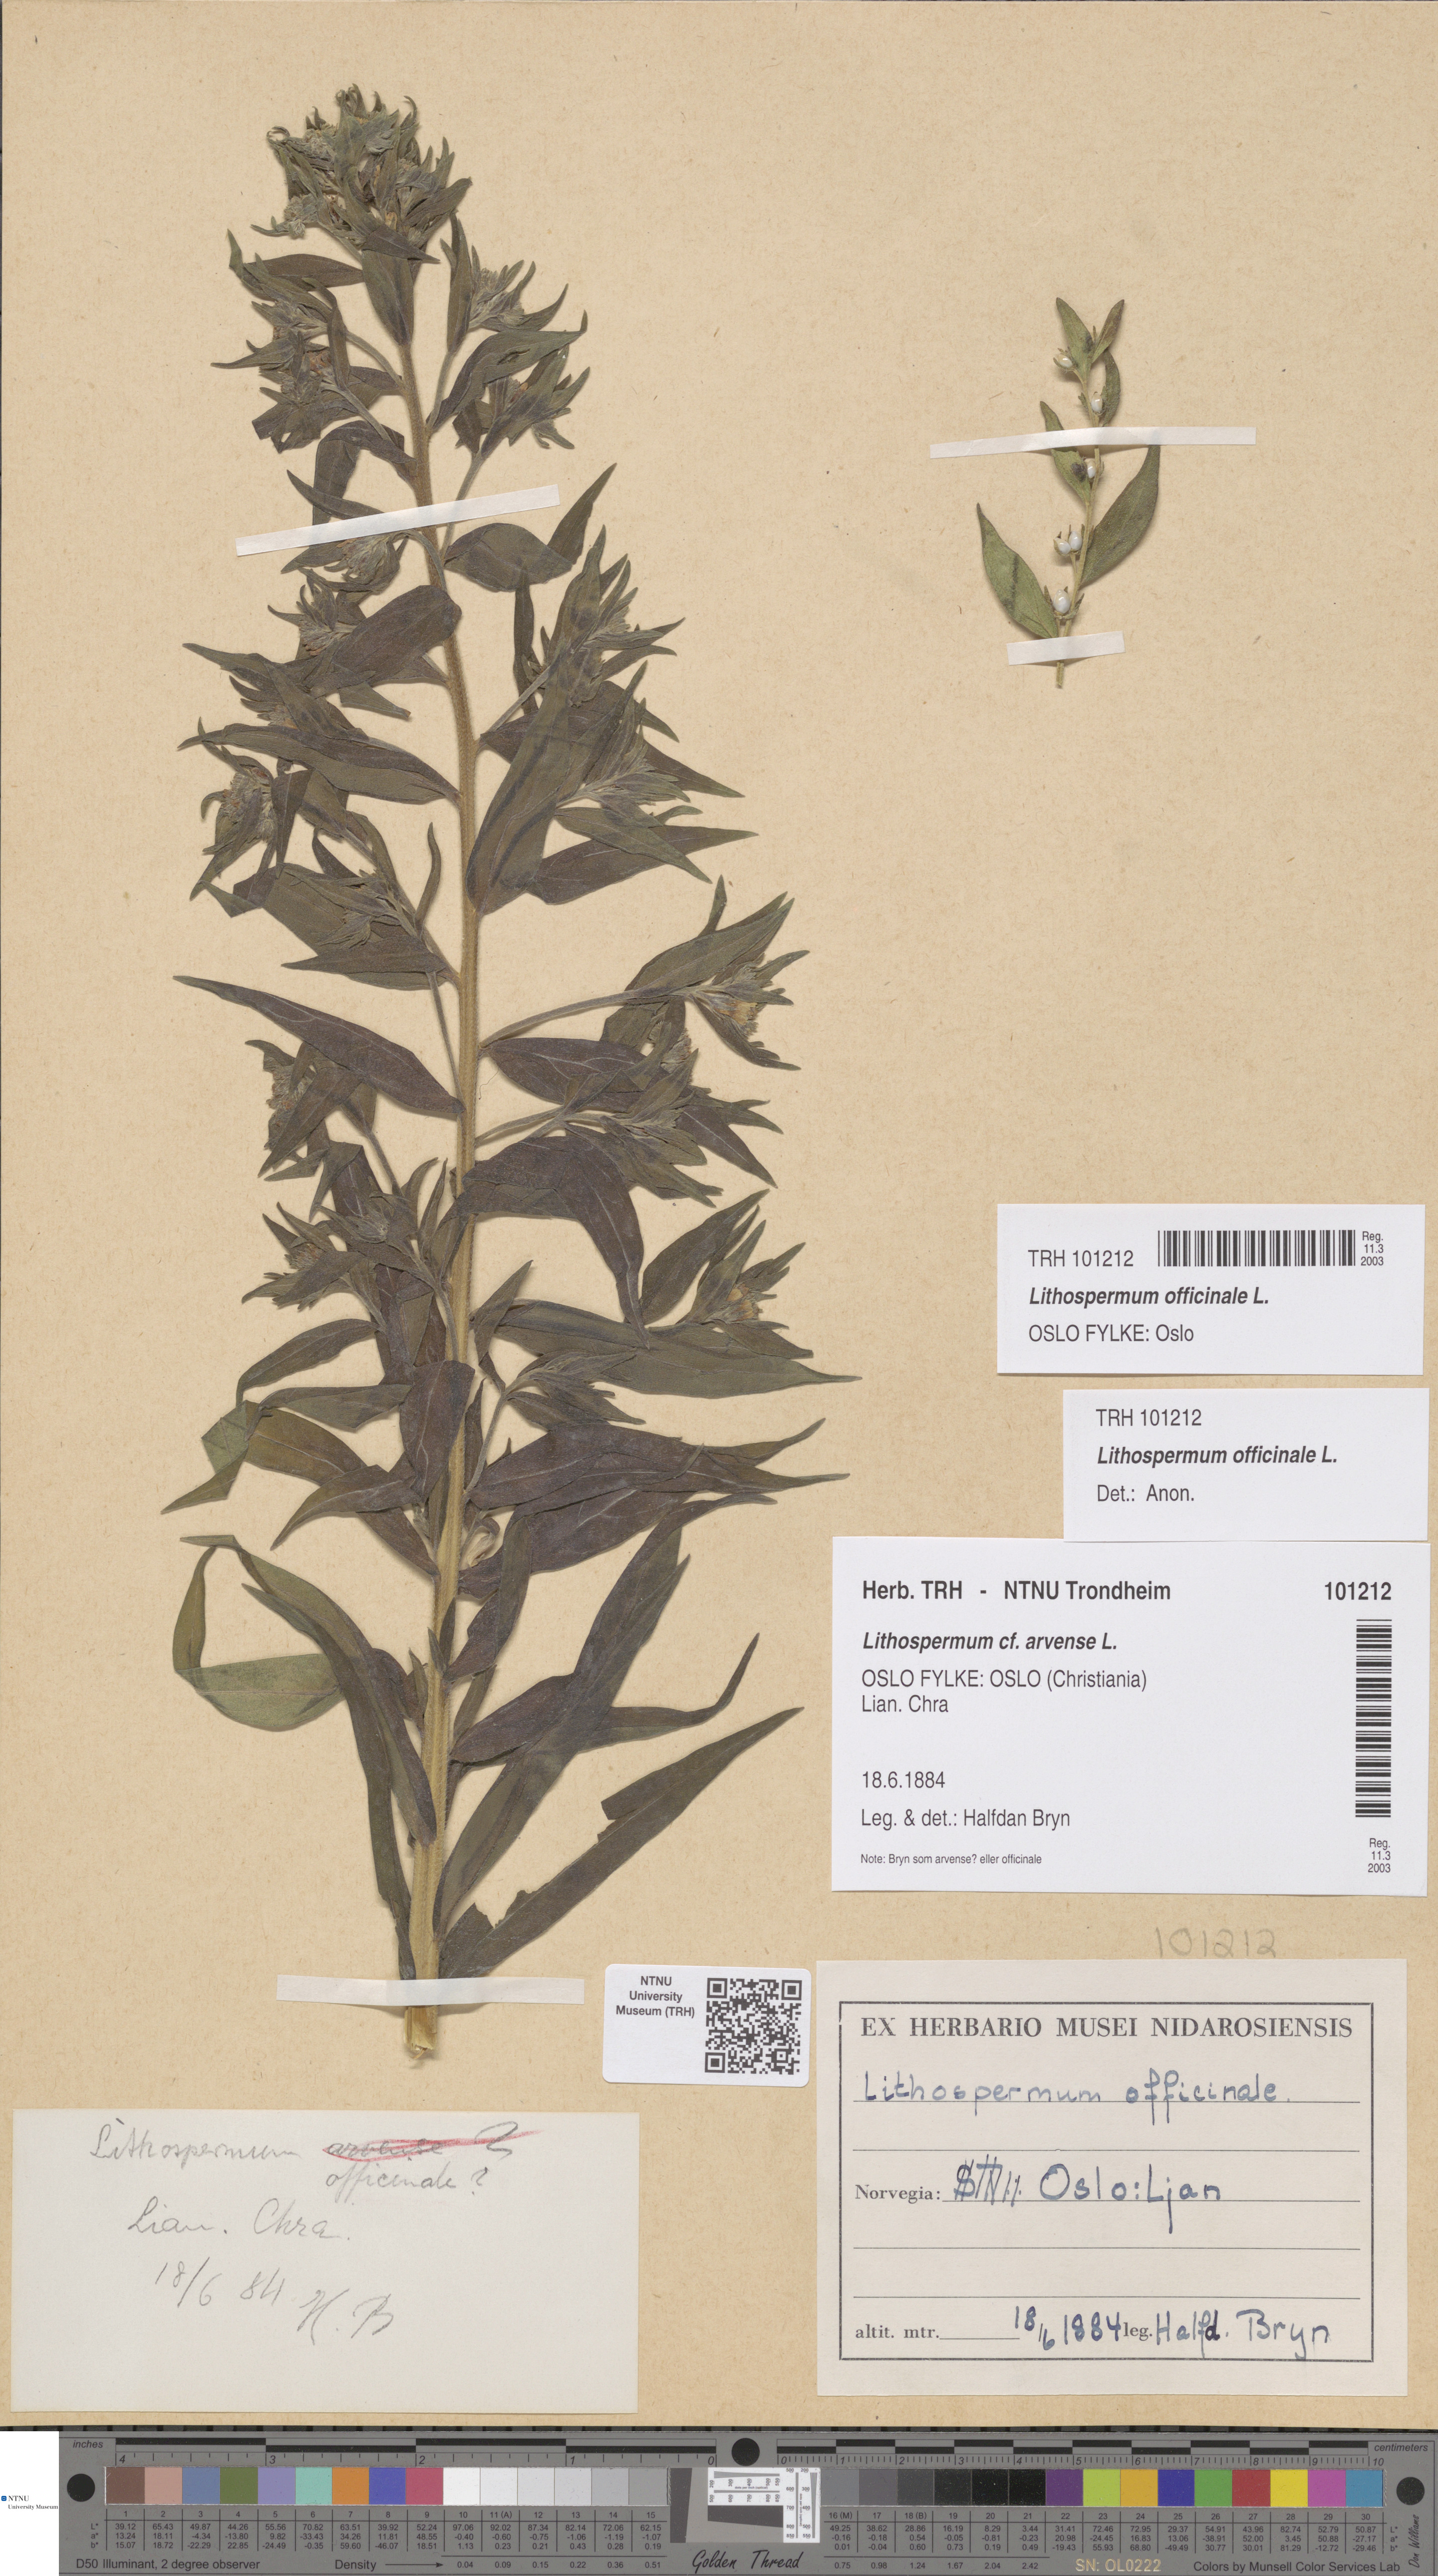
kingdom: Plantae
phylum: Tracheophyta
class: Magnoliopsida
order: Boraginales
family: Boraginaceae
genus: Lithospermum
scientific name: Lithospermum officinale
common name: Common gromwell
